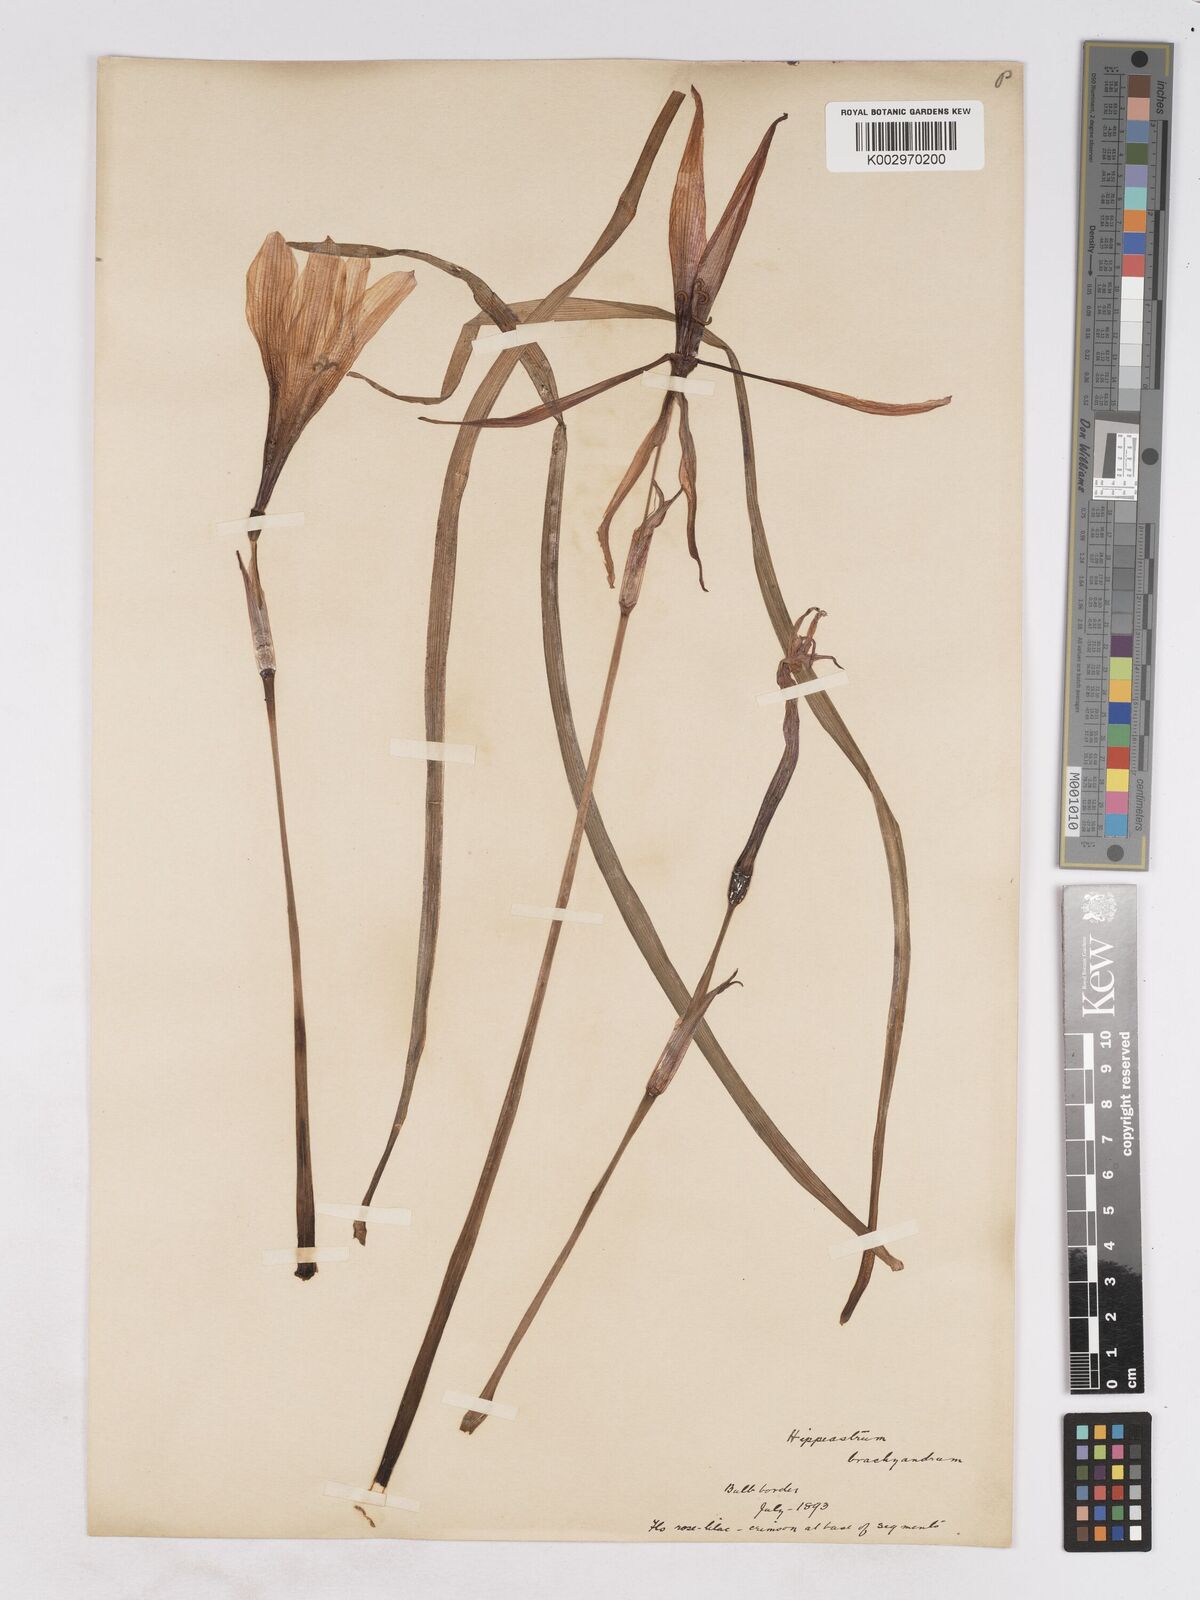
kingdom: Plantae
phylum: Tracheophyta
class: Liliopsida
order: Asparagales
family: Amaryllidaceae
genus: Zephyranthes
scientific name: Zephyranthes brachyandra
